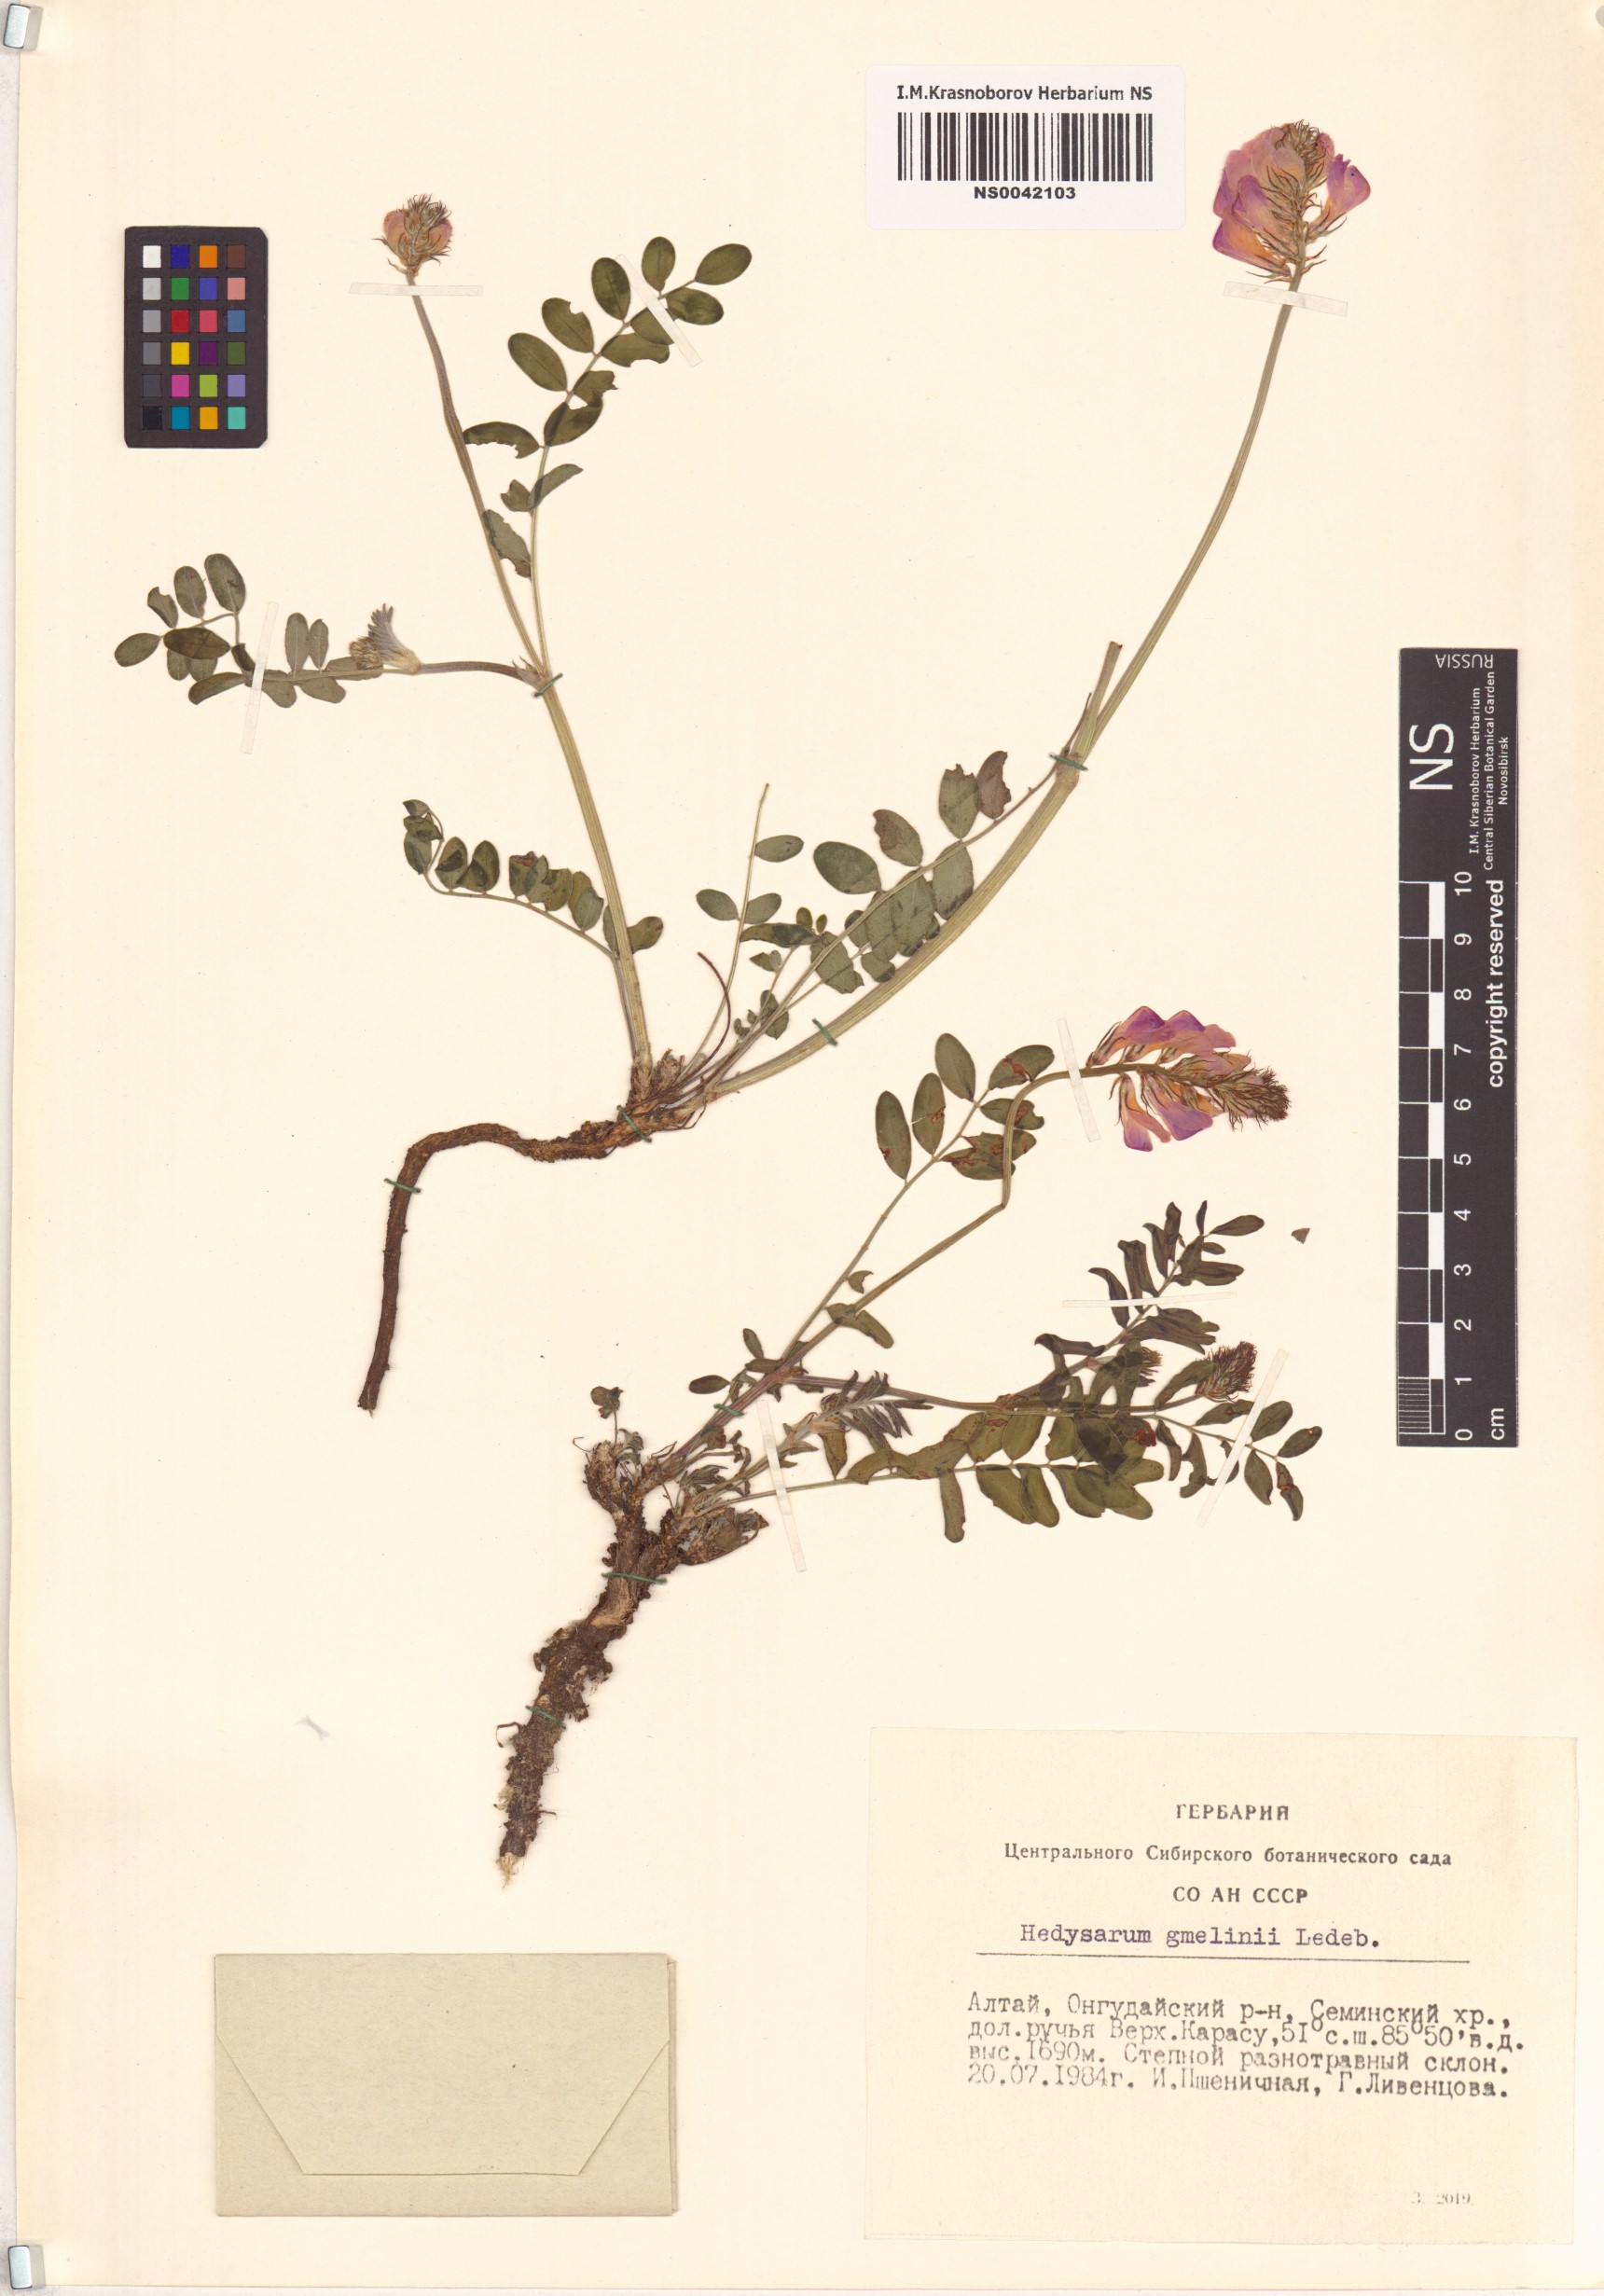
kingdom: Plantae
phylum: Tracheophyta
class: Magnoliopsida
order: Fabales
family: Fabaceae
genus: Hedysarum
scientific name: Hedysarum gmelinii
